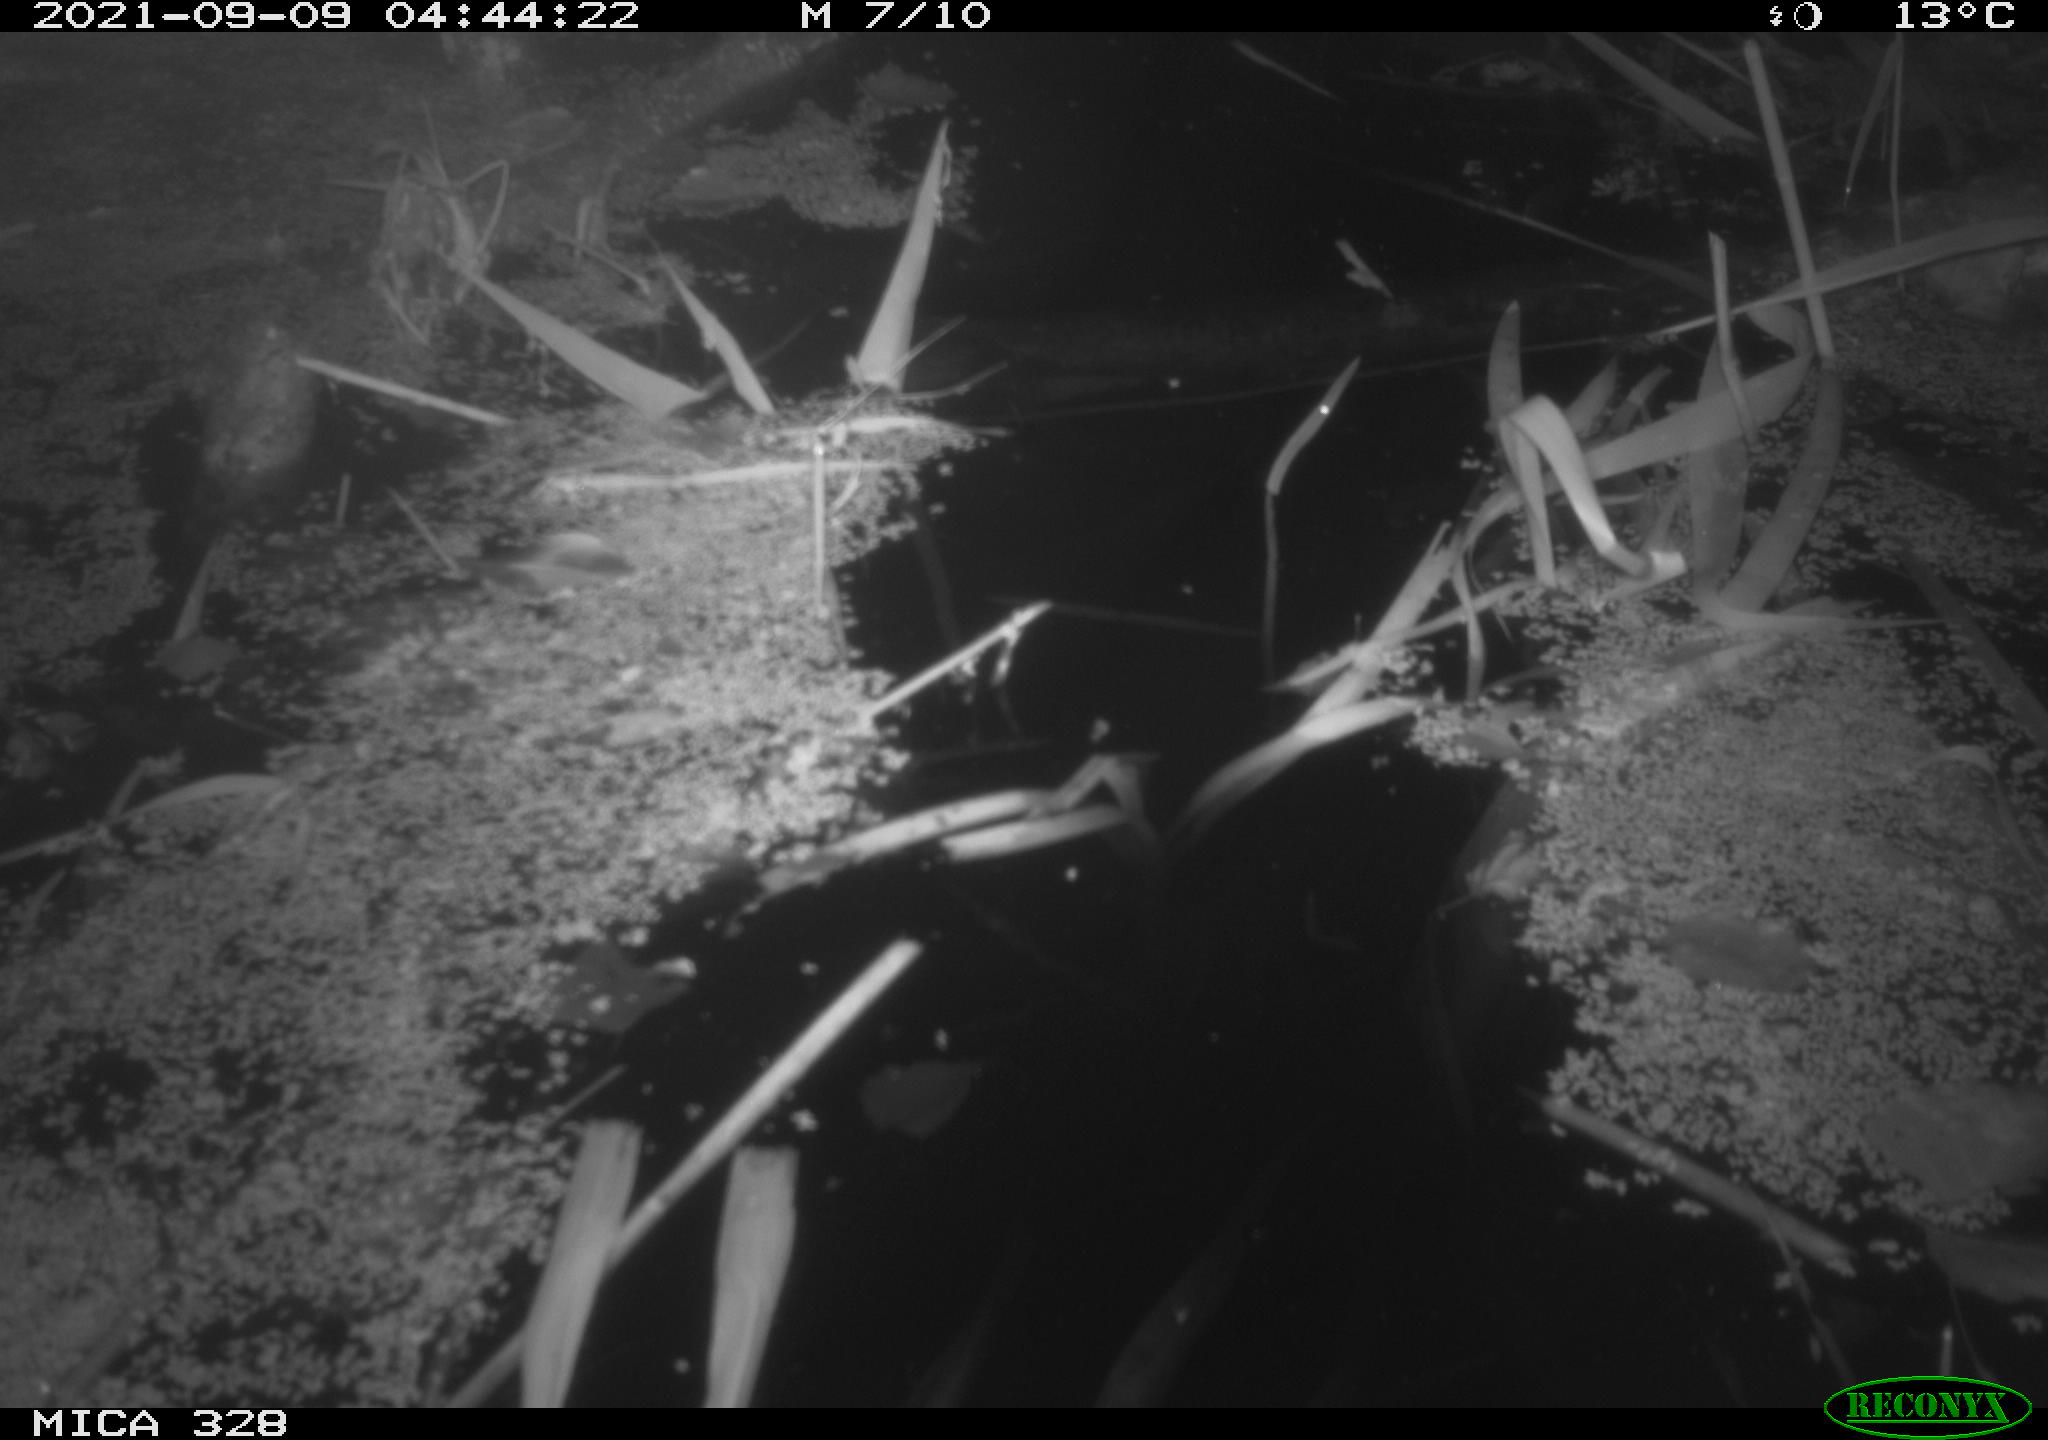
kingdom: Animalia
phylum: Chordata
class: Mammalia
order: Rodentia
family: Cricetidae
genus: Ondatra
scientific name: Ondatra zibethicus
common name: Muskrat
